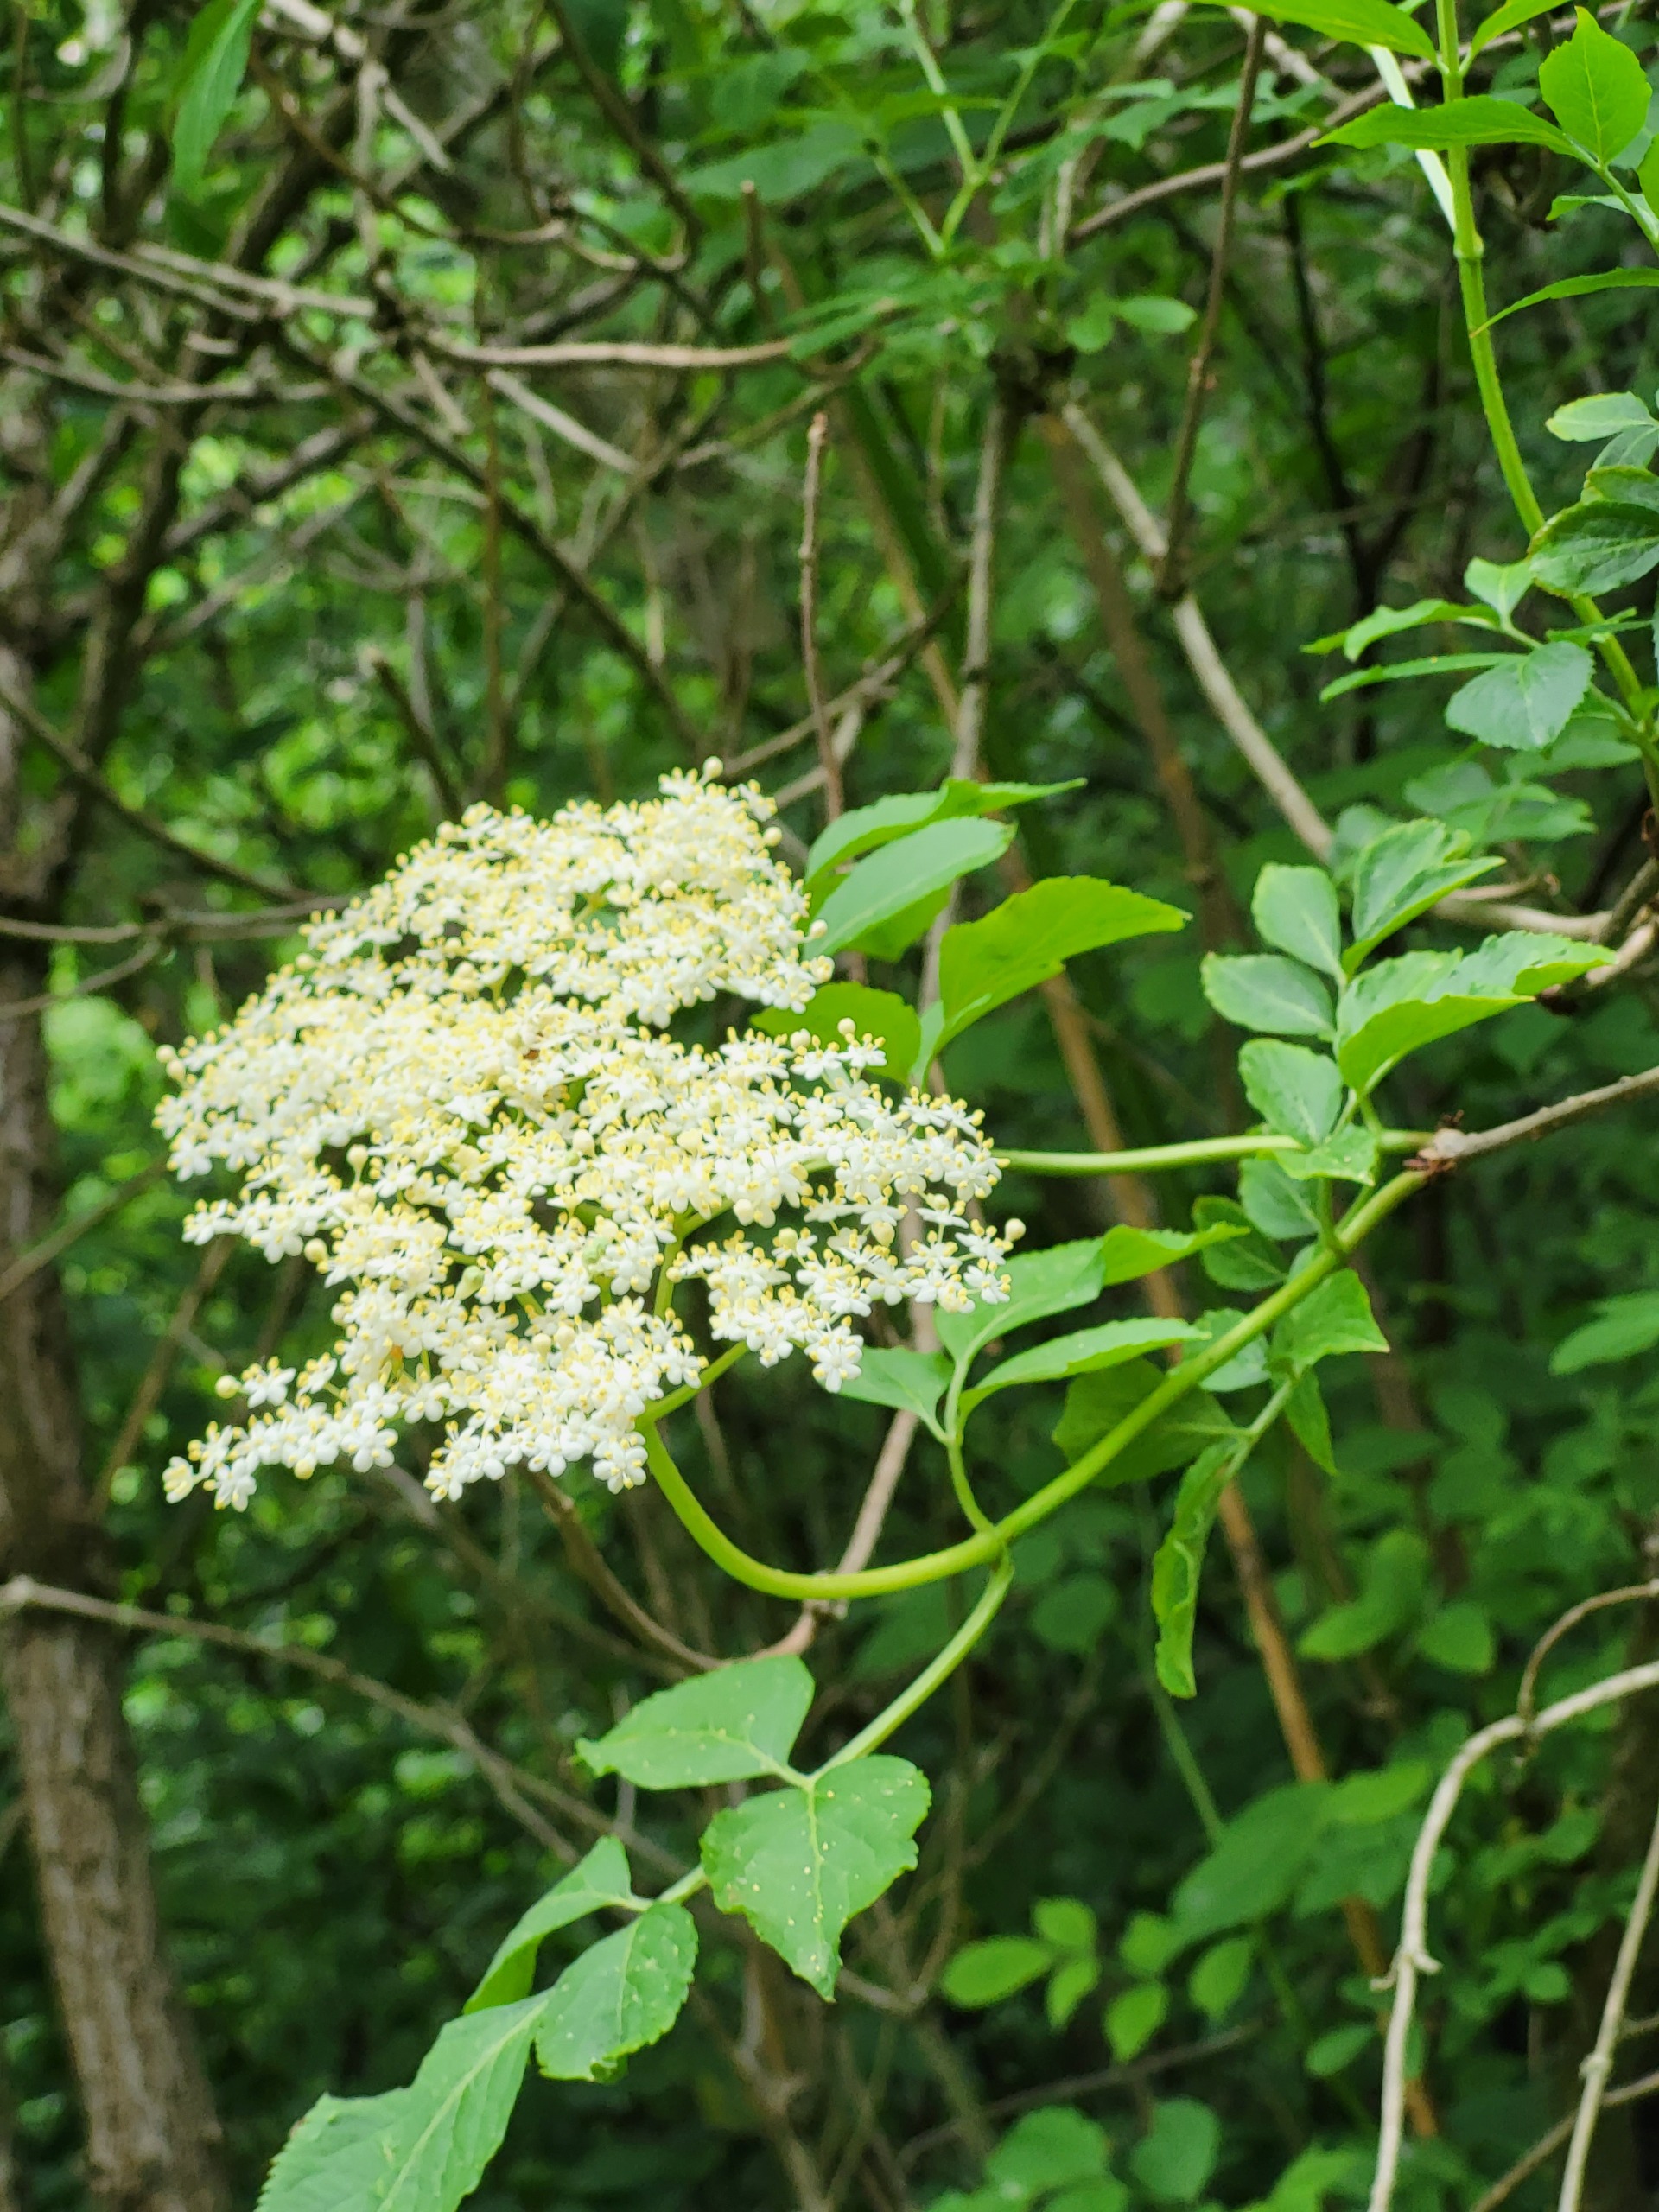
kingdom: Plantae
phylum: Tracheophyta
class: Magnoliopsida
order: Dipsacales
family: Viburnaceae
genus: Sambucus
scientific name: Sambucus nigra
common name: Almindelig hyld
